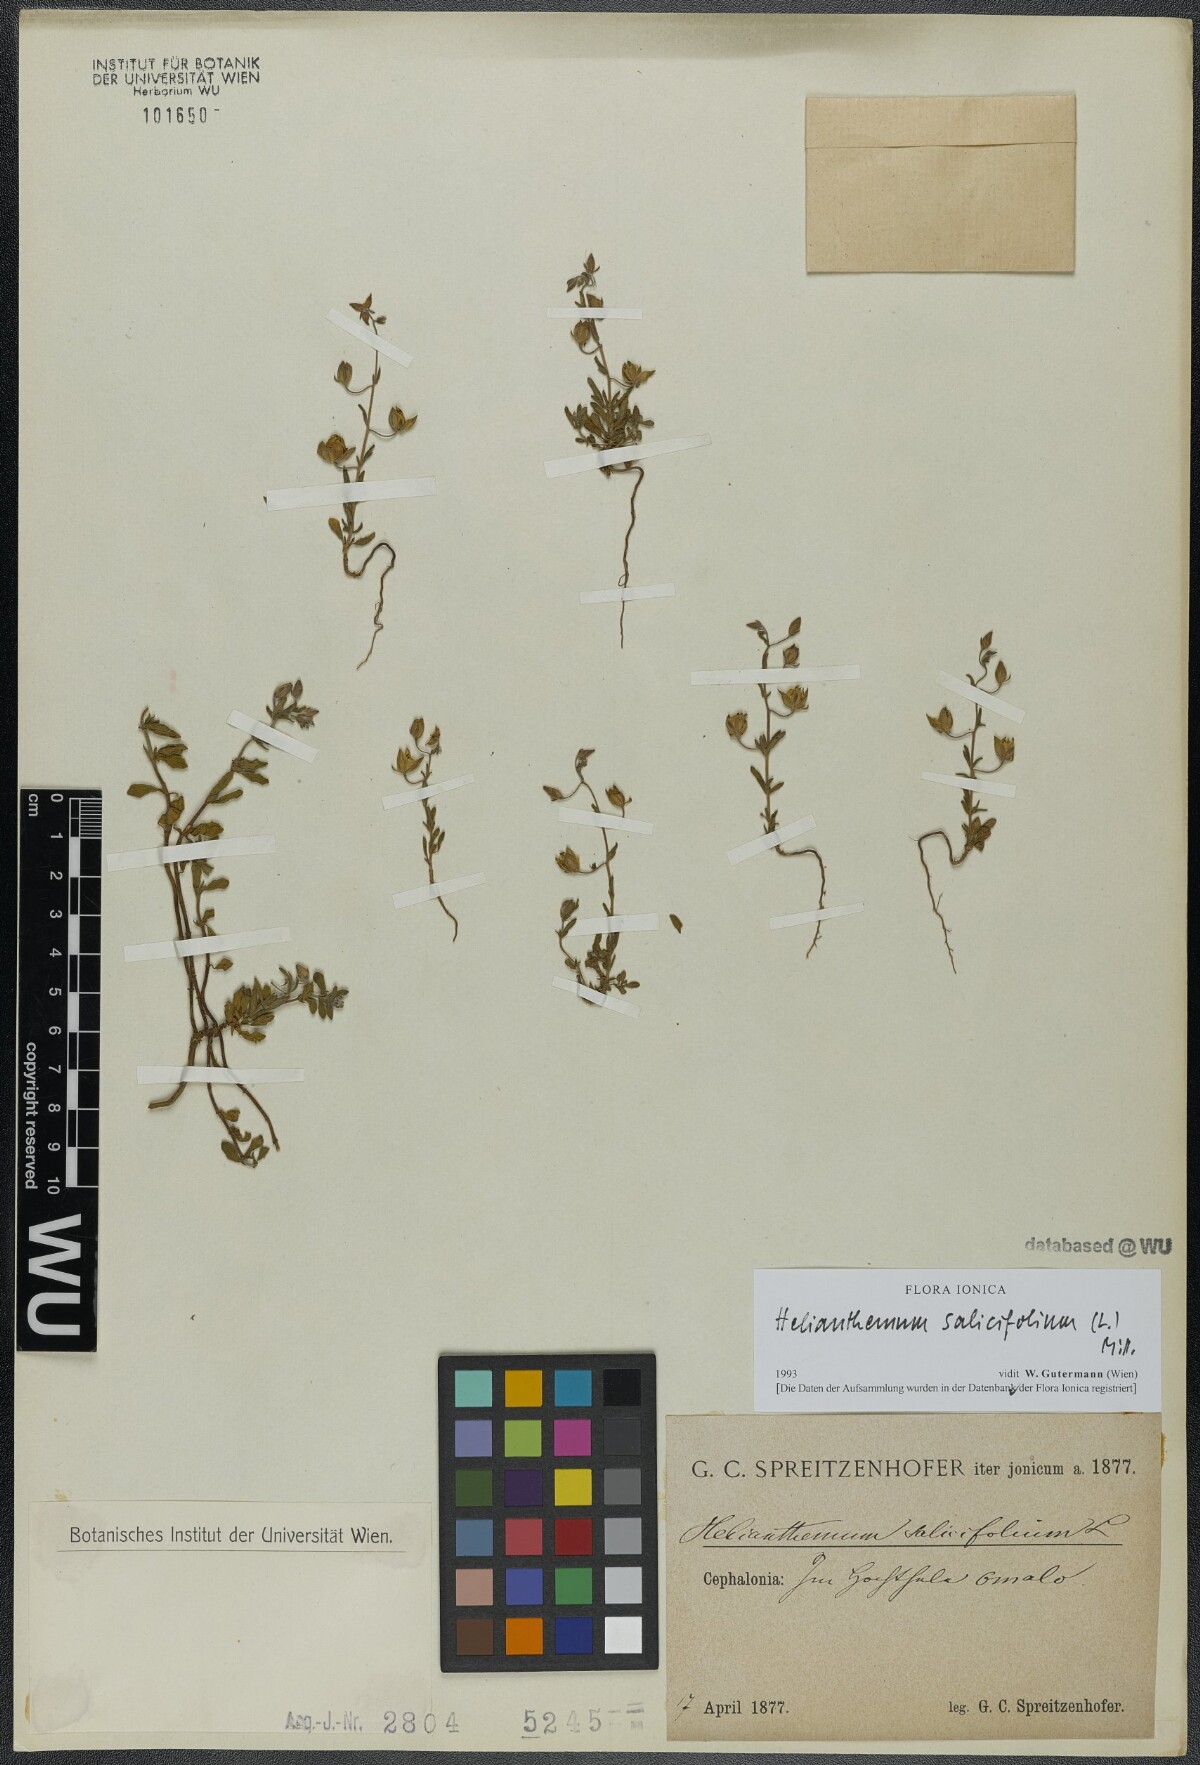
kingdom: Plantae
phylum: Tracheophyta
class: Magnoliopsida
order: Malvales
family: Cistaceae
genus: Helianthemum
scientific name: Helianthemum salicifolium
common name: Willowleaf frostweed
